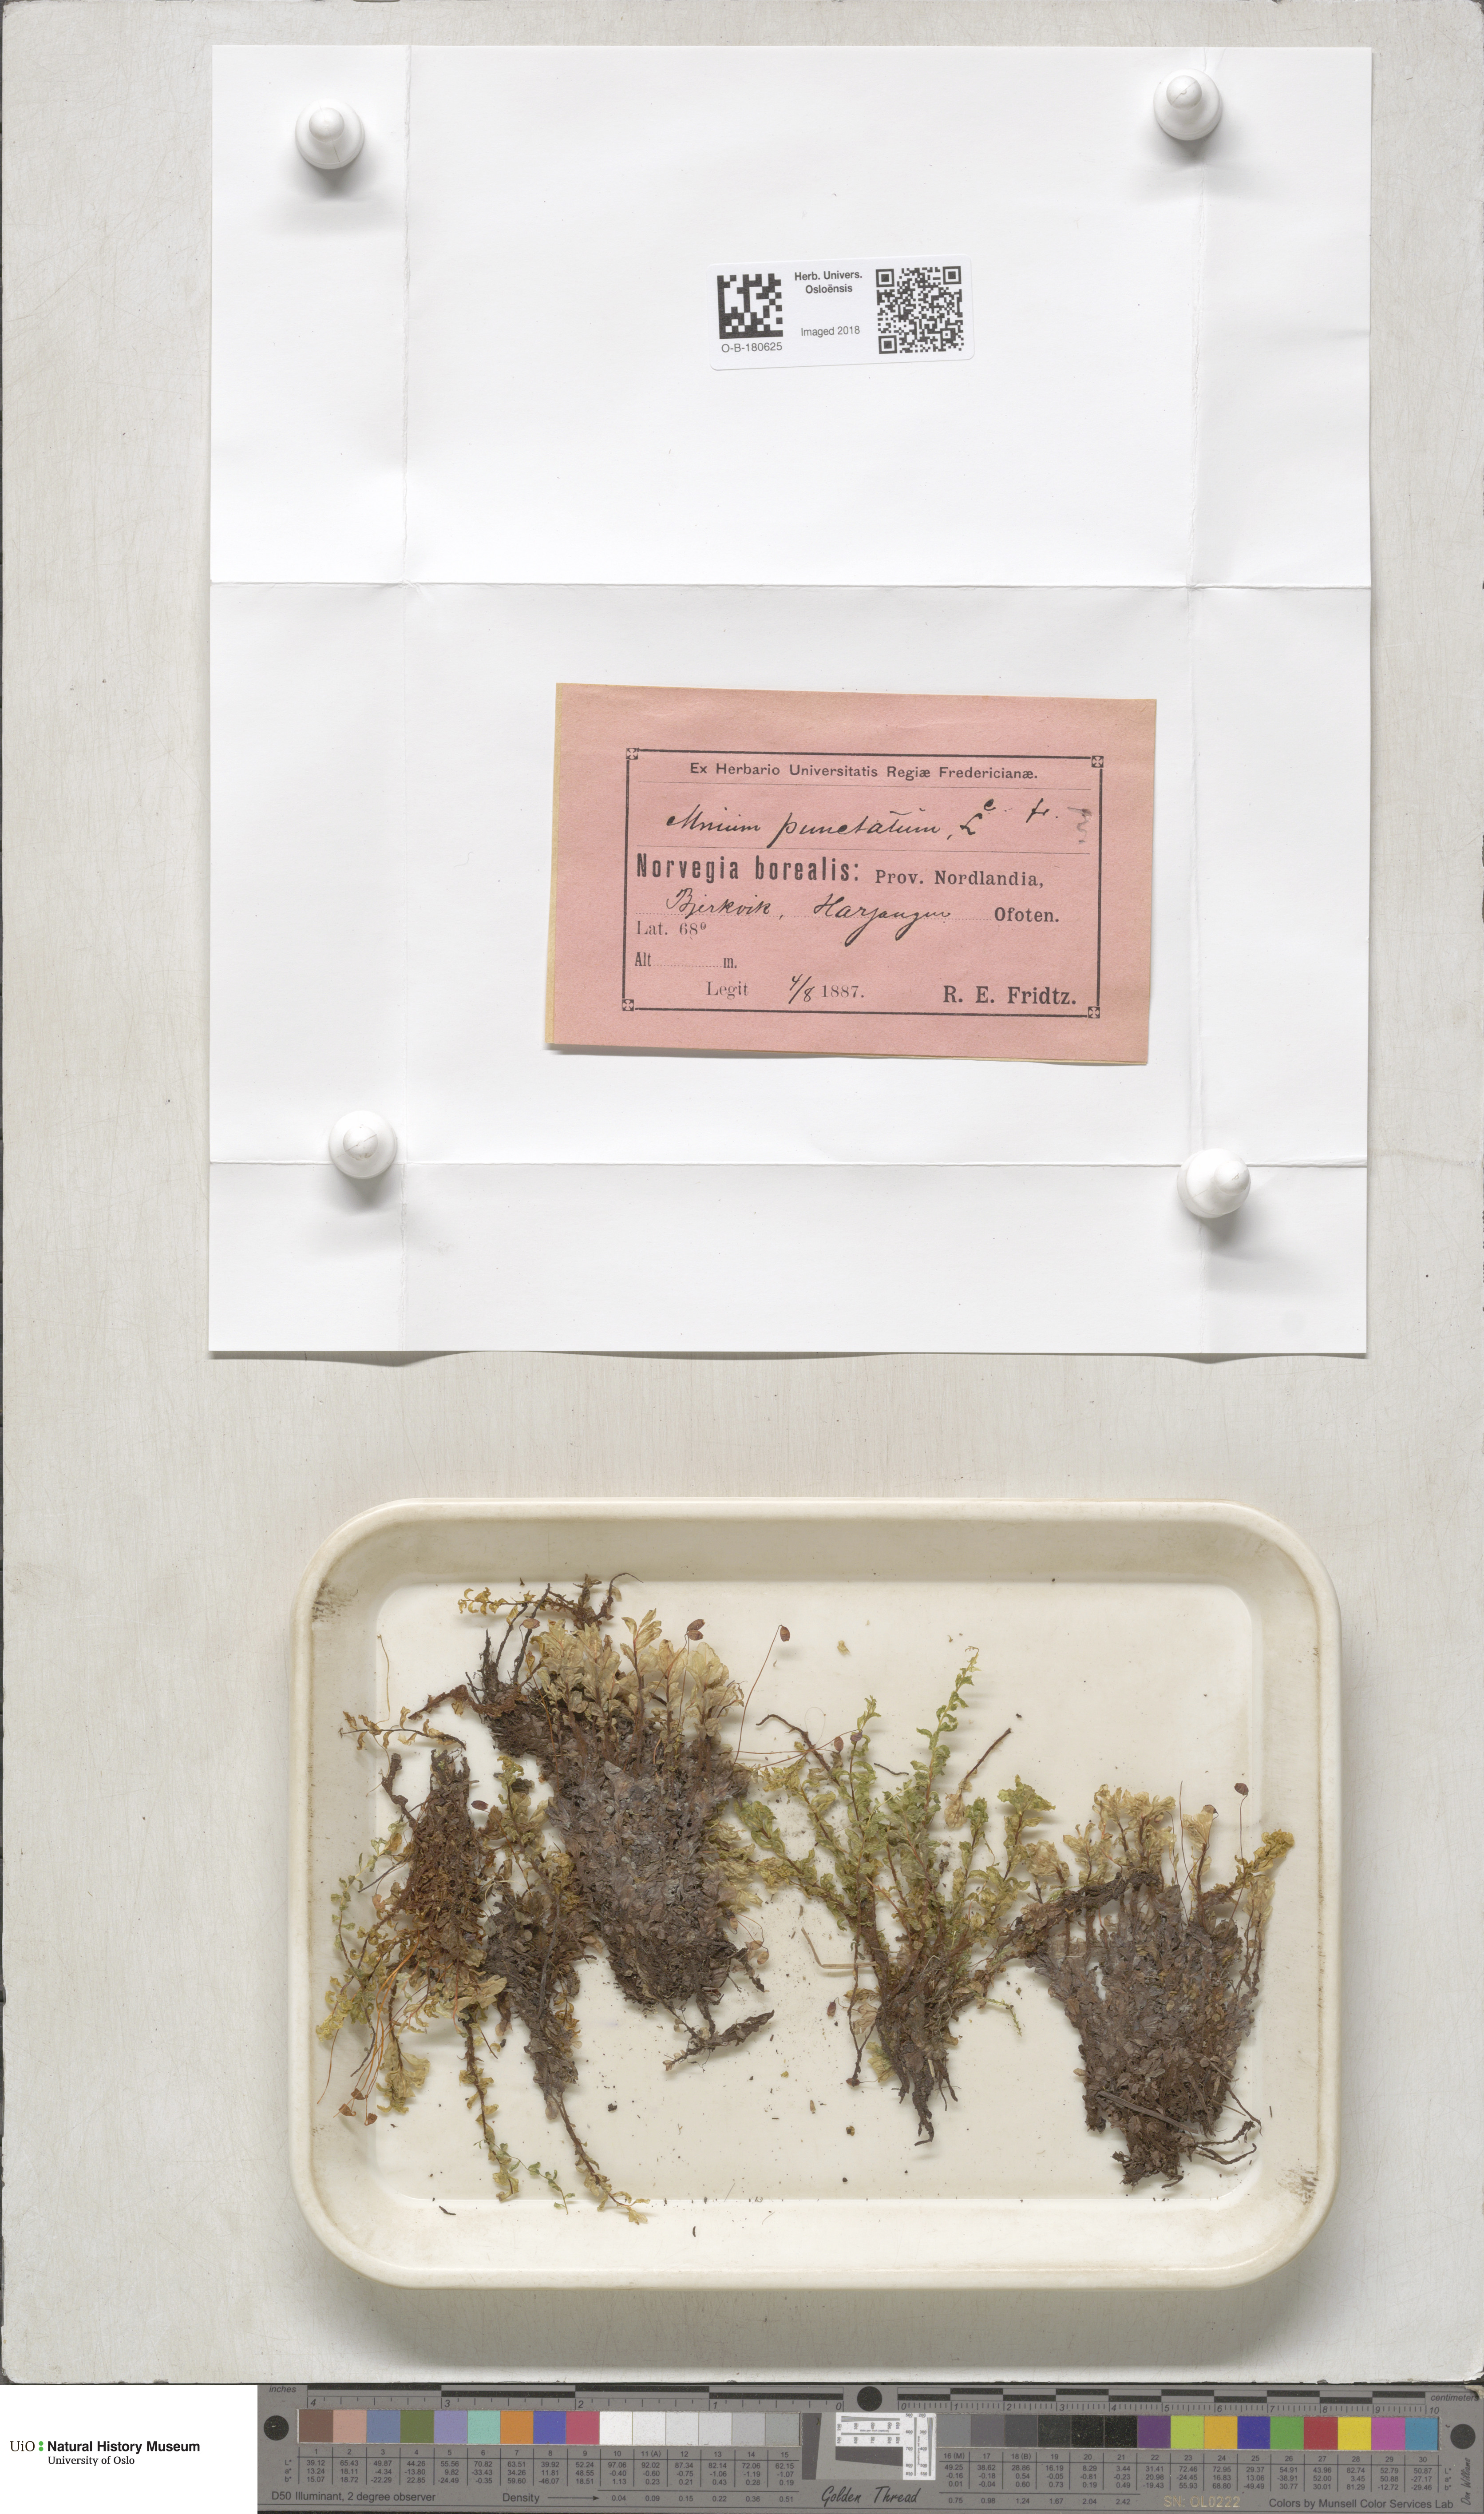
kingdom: Plantae
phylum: Bryophyta
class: Bryopsida
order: Bryales
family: Mniaceae
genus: Rhizomnium
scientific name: Rhizomnium punctatum
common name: Dotted leafy moss
